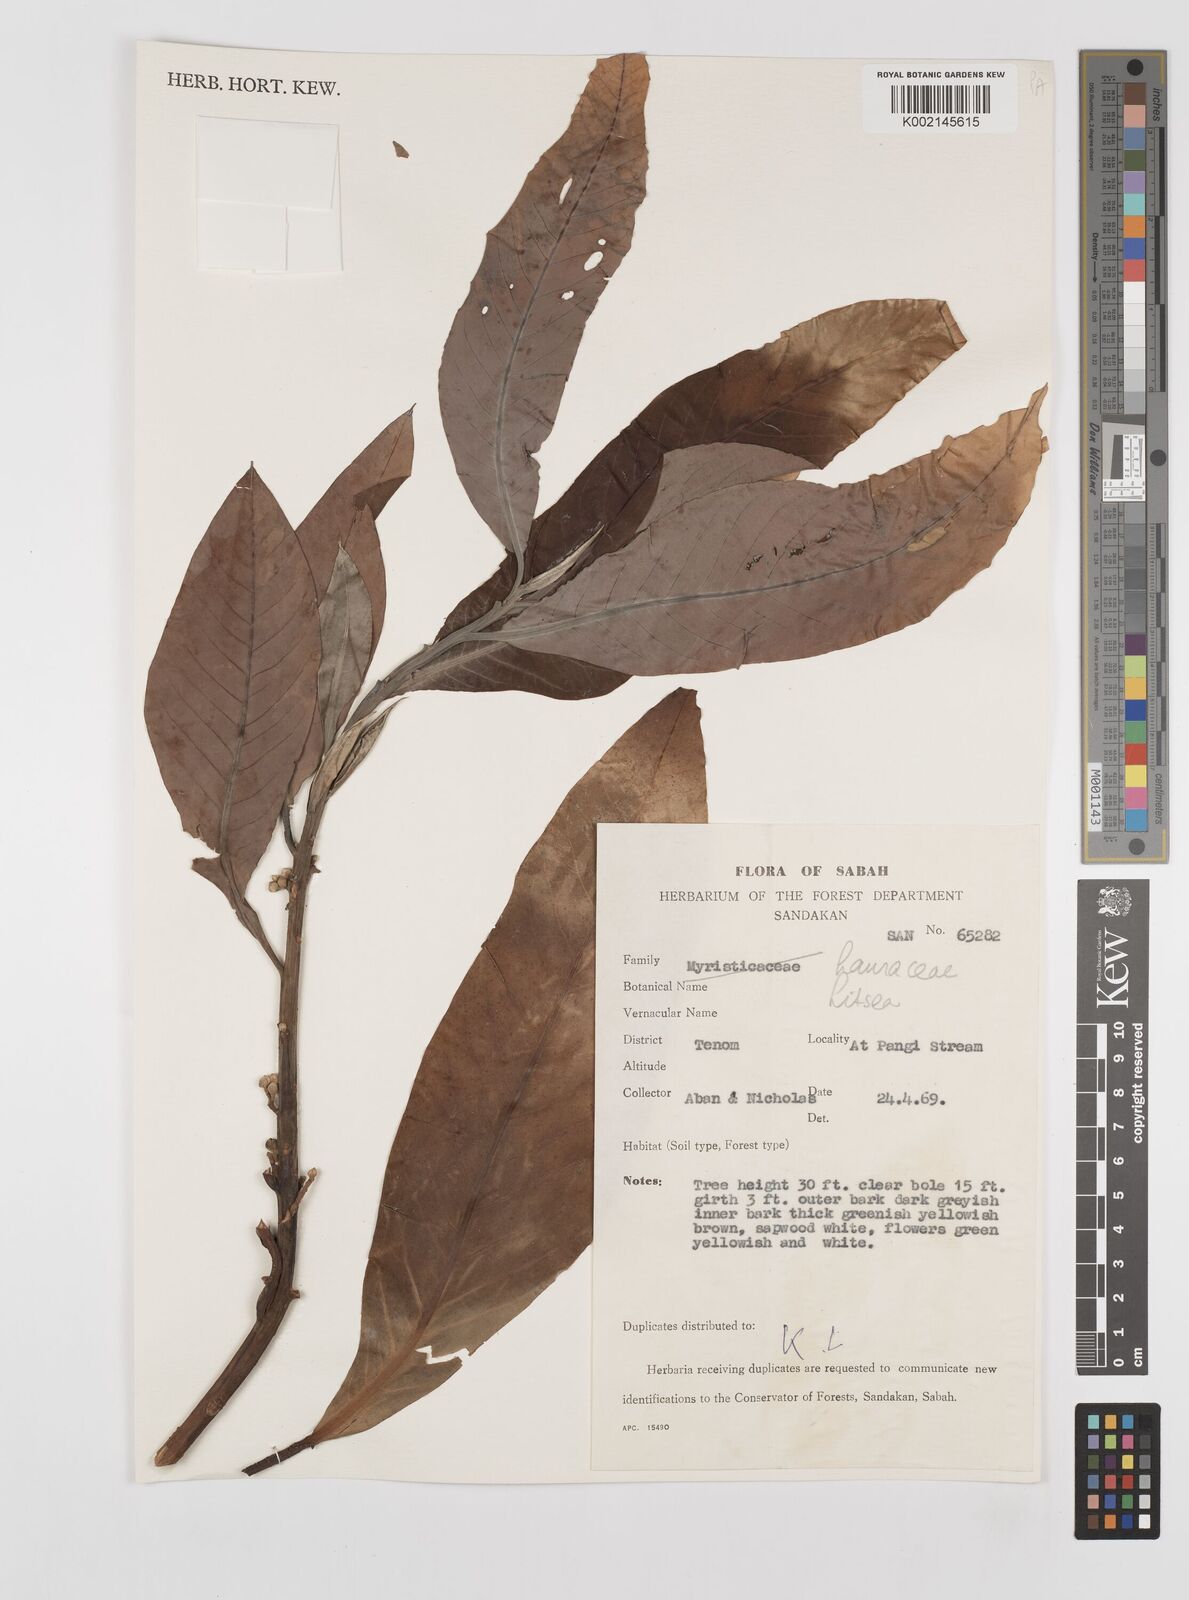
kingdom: Plantae
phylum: Tracheophyta
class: Magnoliopsida
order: Laurales
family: Lauraceae
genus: Litsea
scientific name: Litsea
